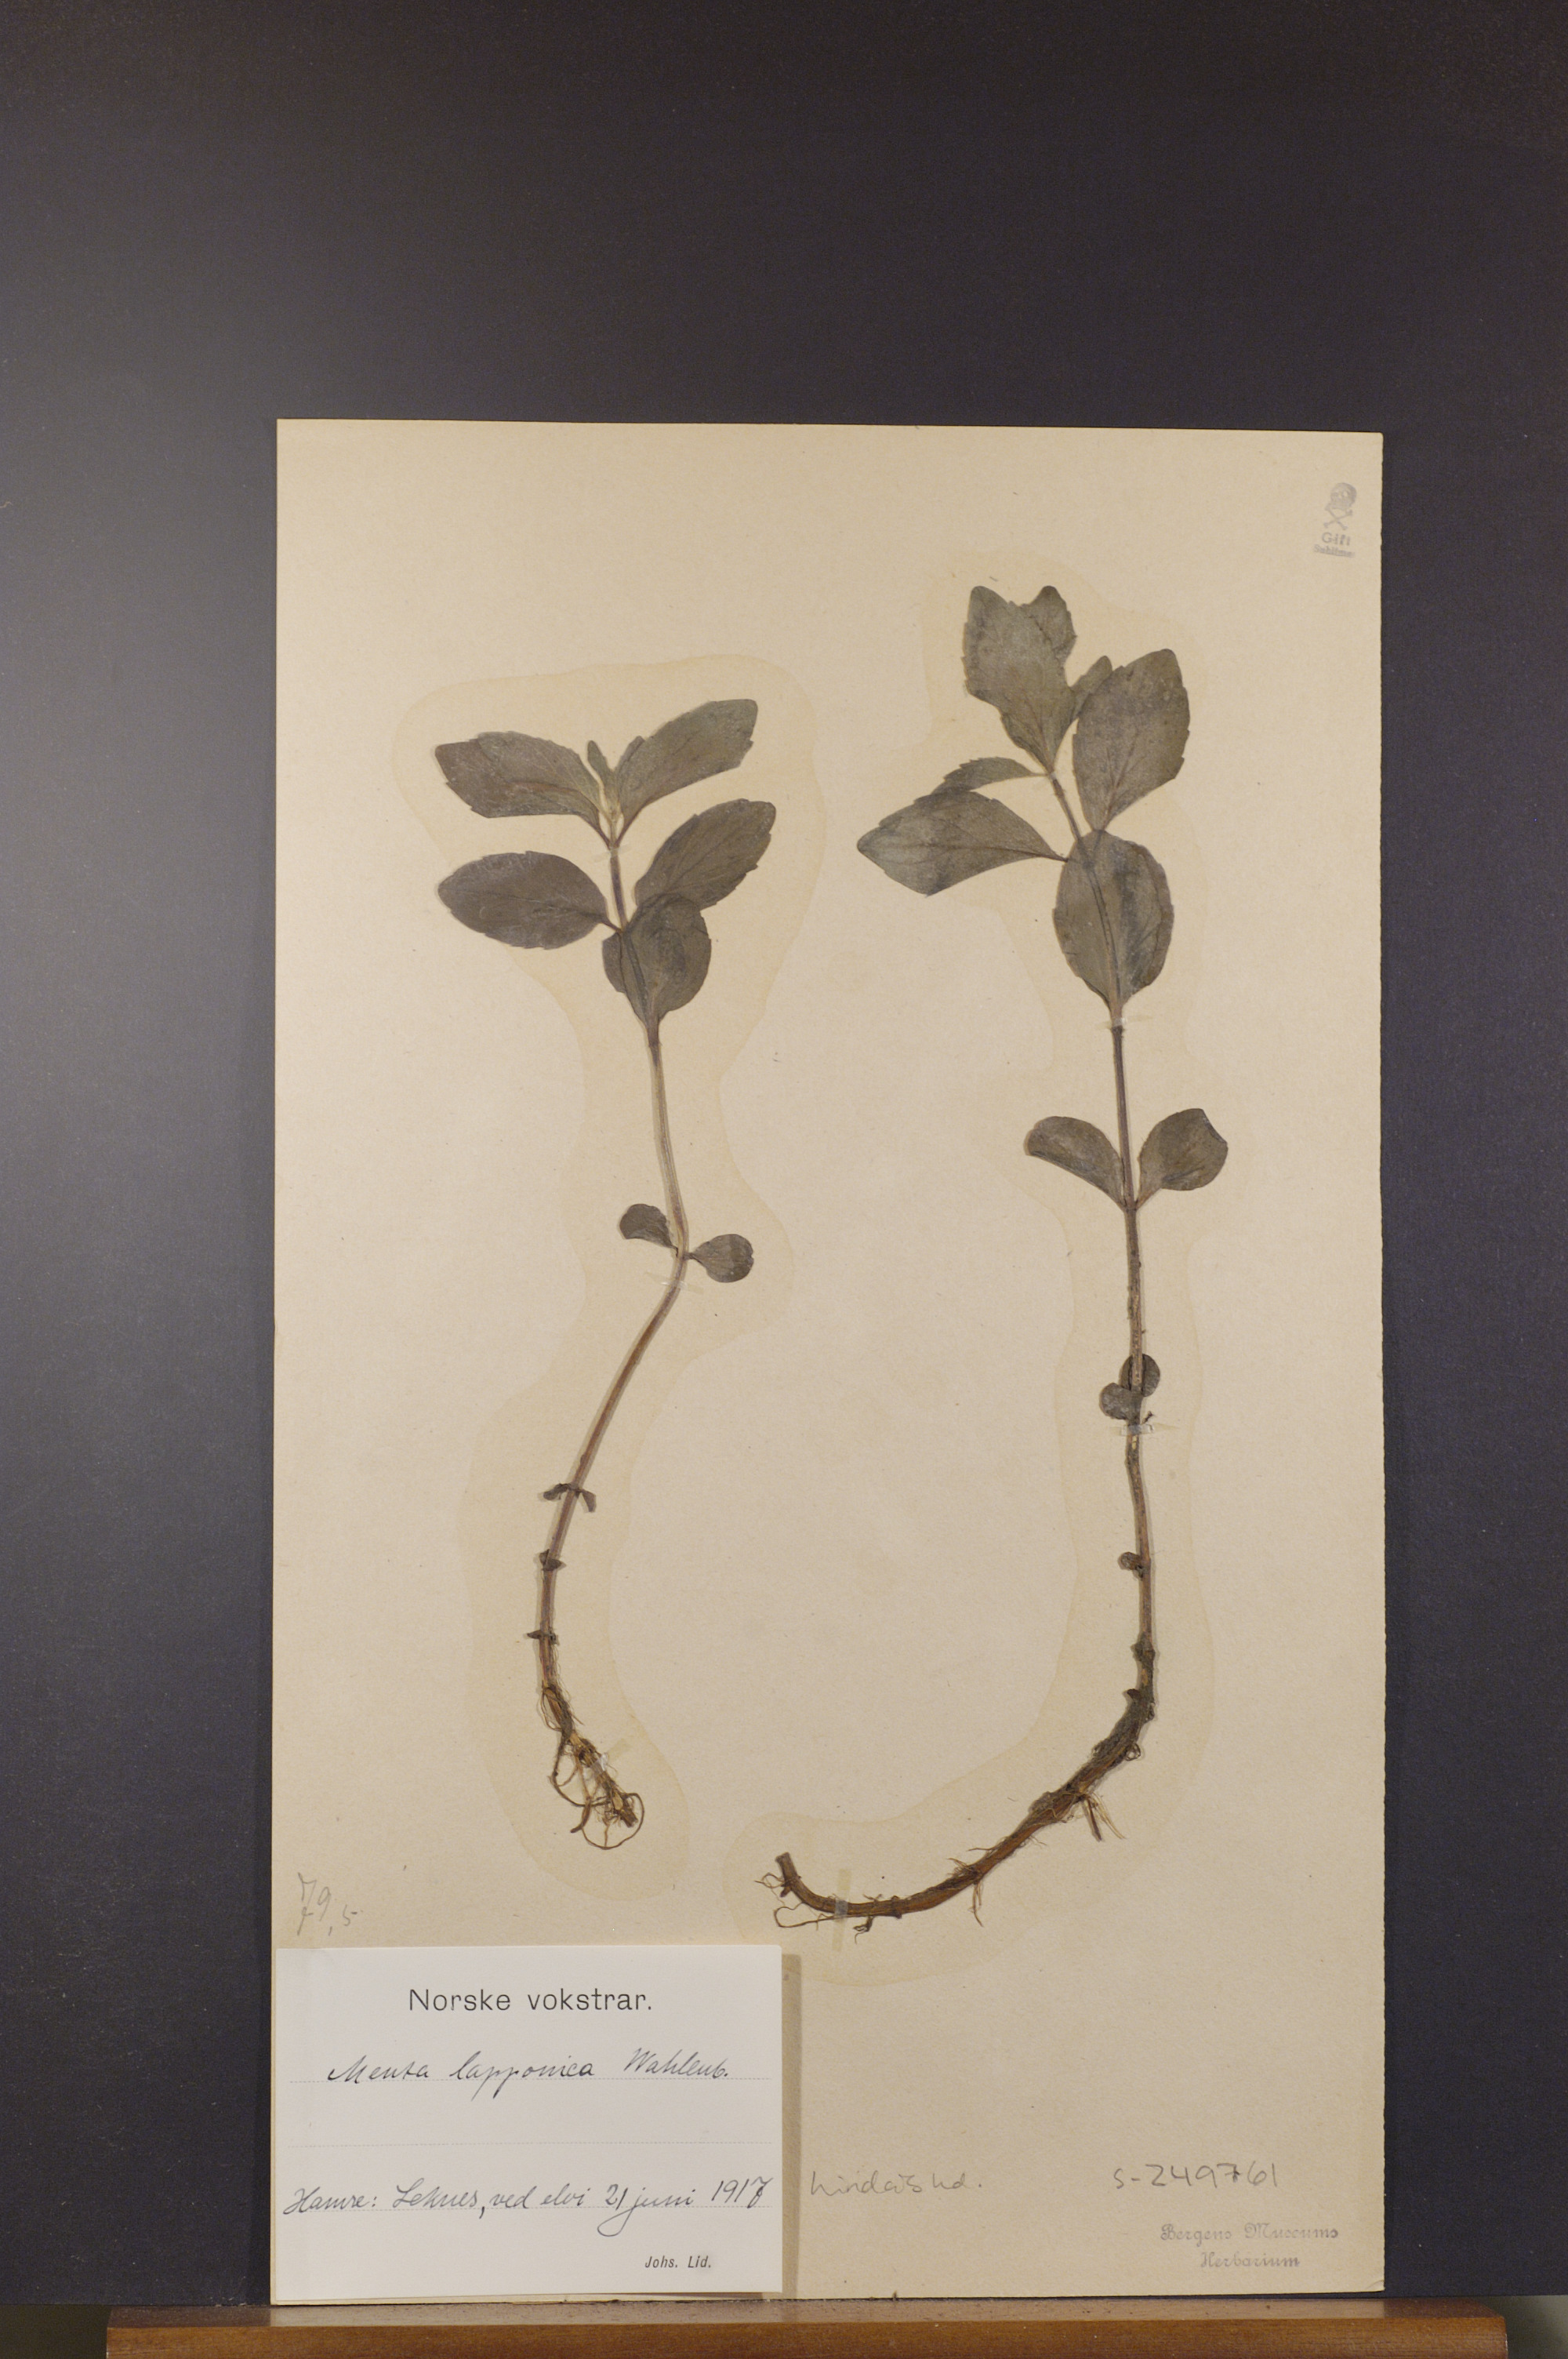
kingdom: Plantae
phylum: Tracheophyta
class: Magnoliopsida
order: Lamiales
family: Lamiaceae
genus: Mentha
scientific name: Mentha arvensis
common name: Corn mint
